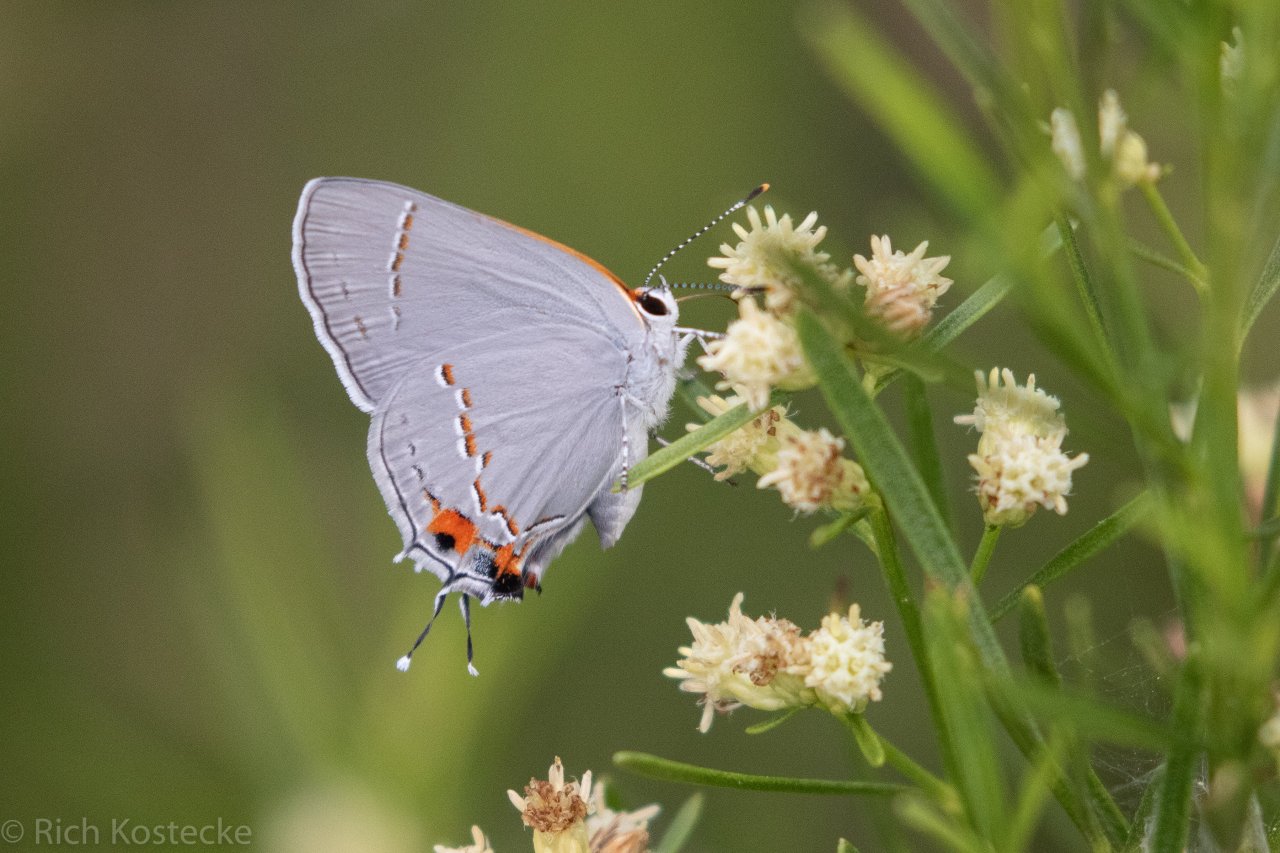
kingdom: Animalia
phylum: Arthropoda
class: Insecta
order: Lepidoptera
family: Lycaenidae
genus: Strymon
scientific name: Strymon melinus
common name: Gray Hairstreak
